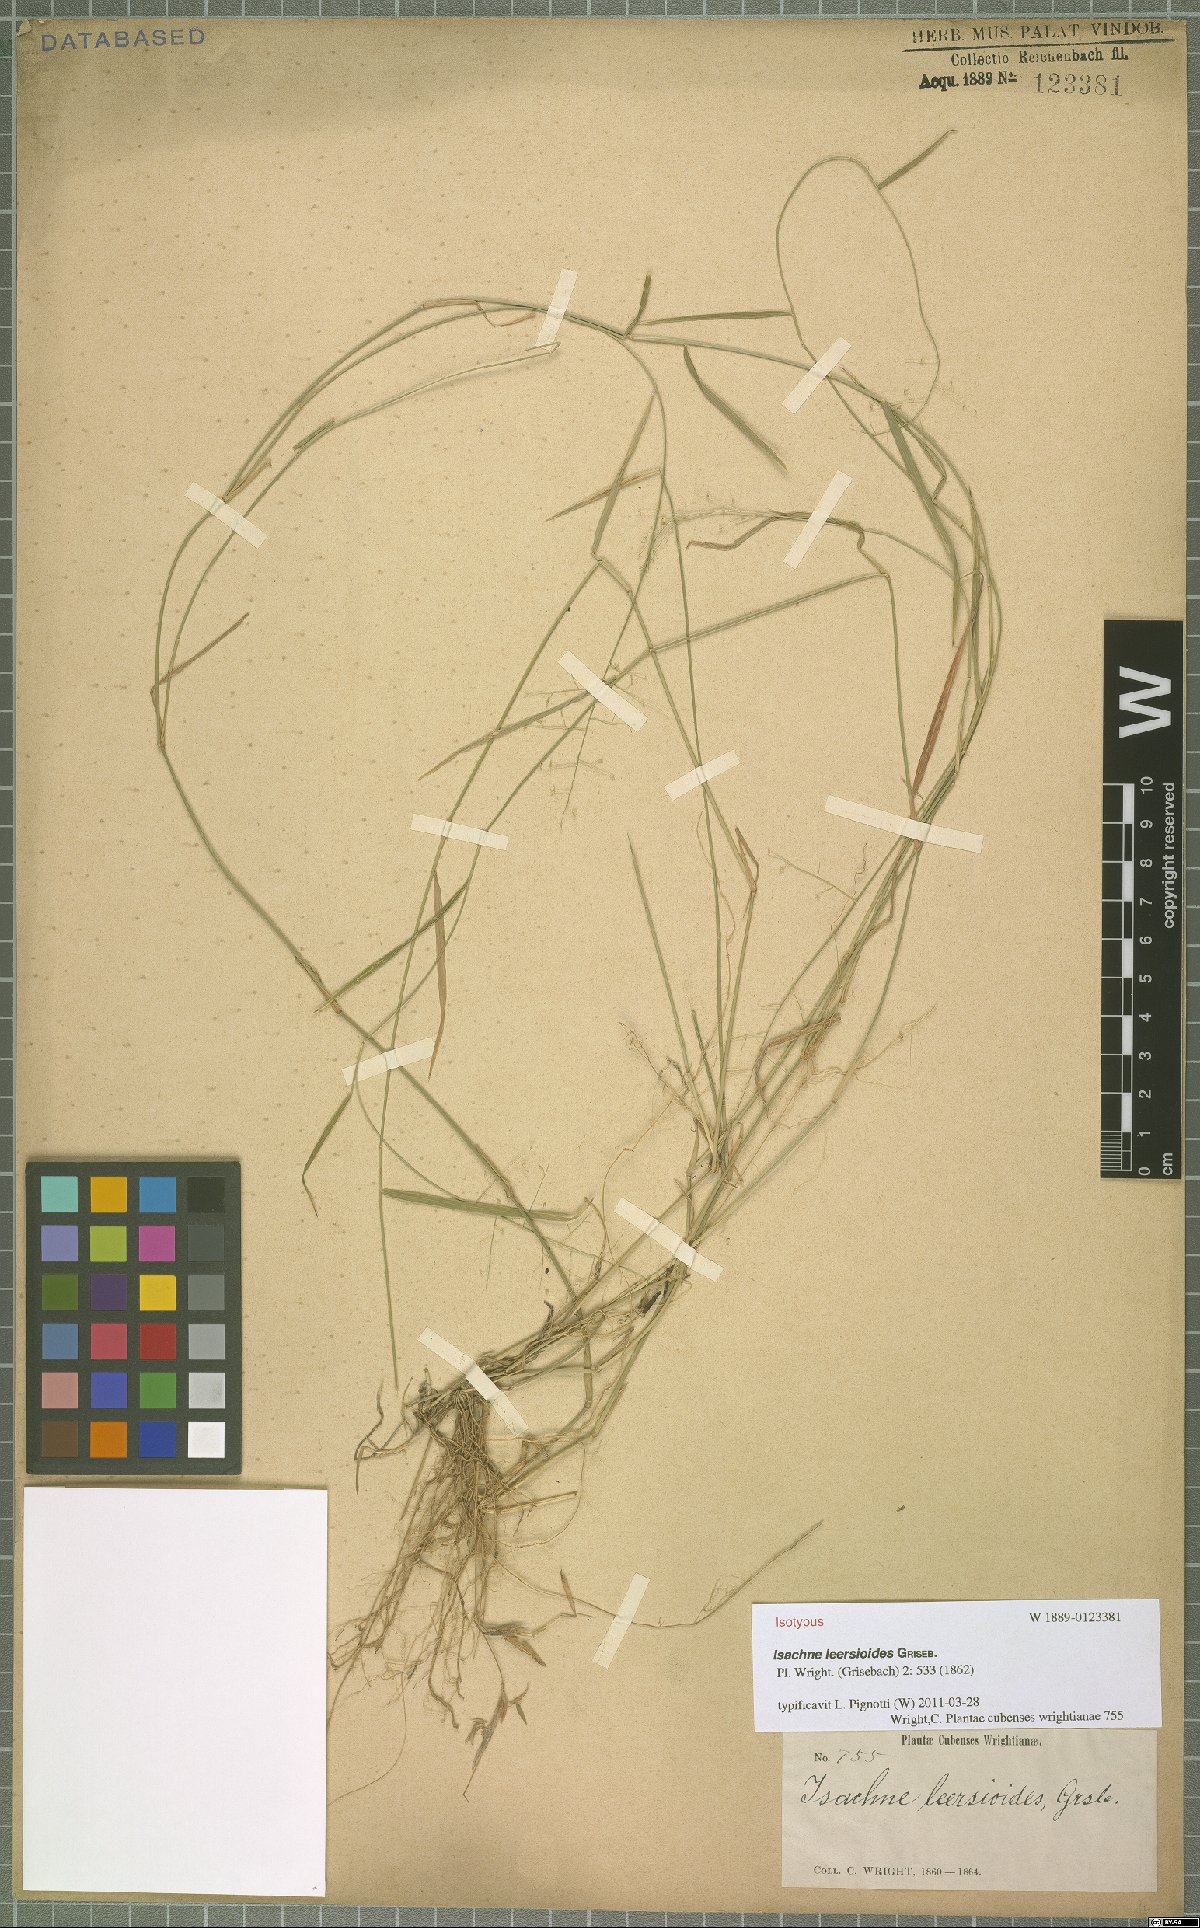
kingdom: Plantae
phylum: Tracheophyta
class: Liliopsida
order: Poales
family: Poaceae
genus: Isachne
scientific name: Isachne leersioides
